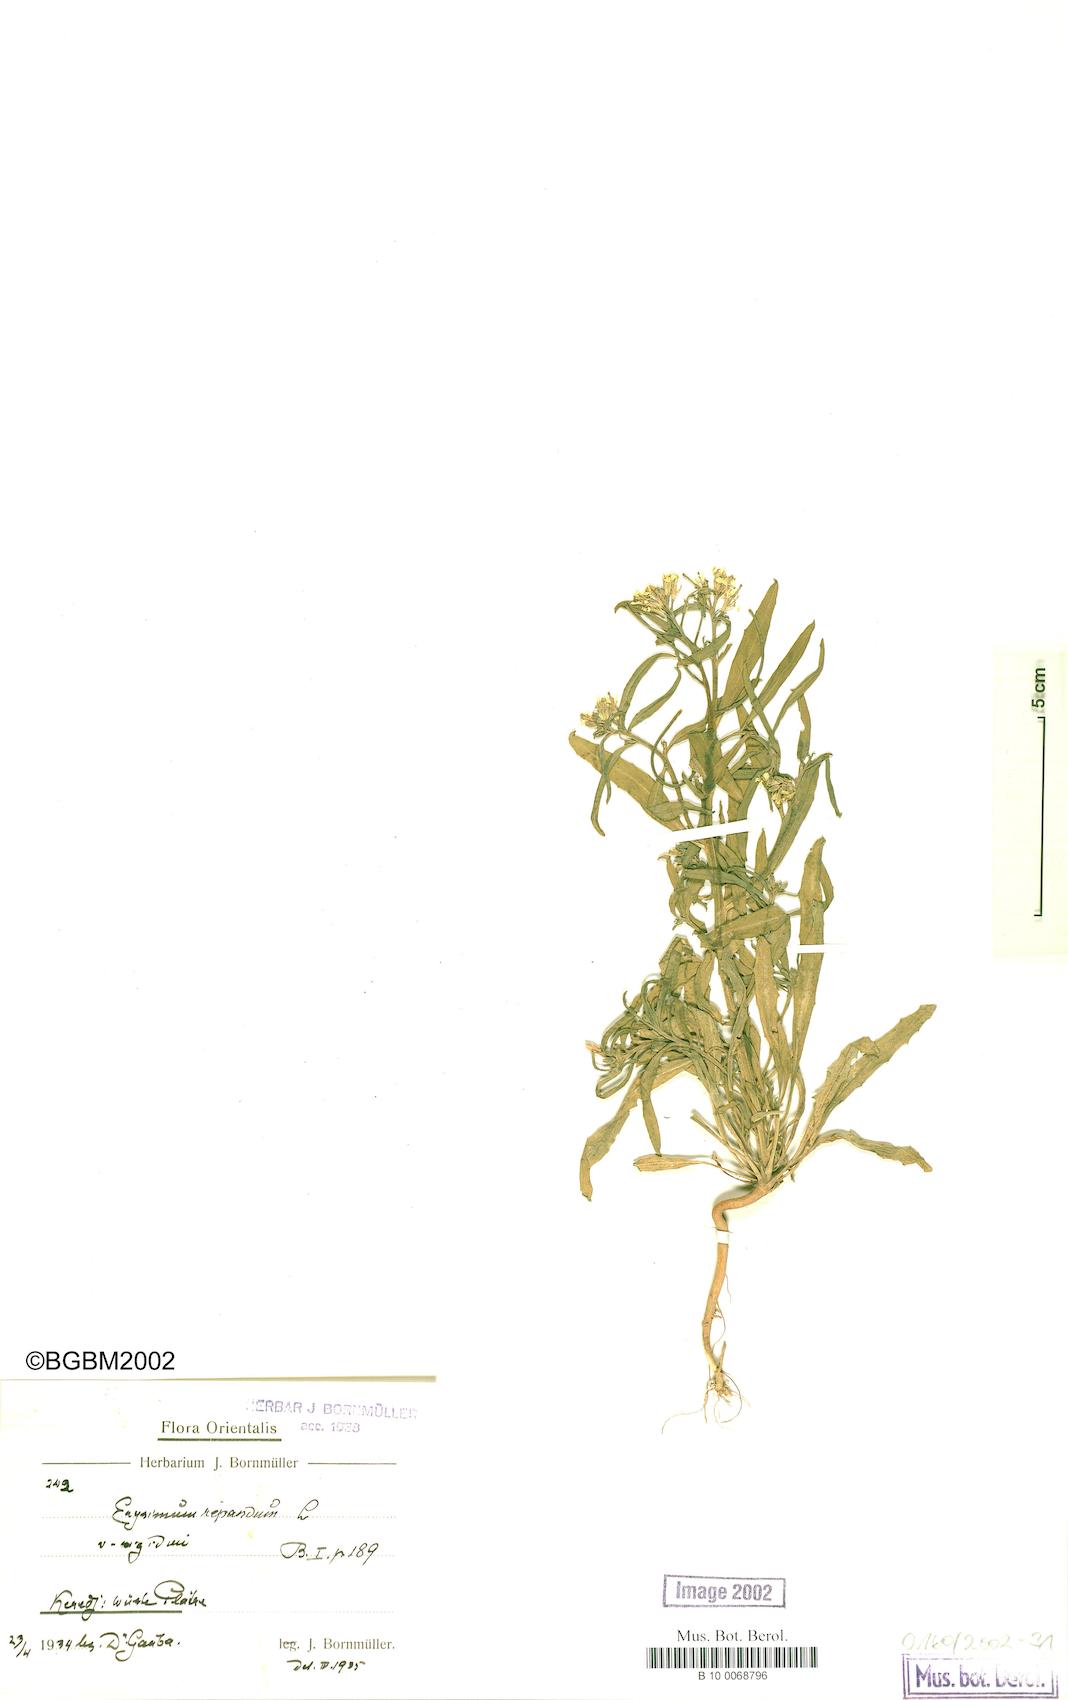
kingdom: Plantae
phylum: Tracheophyta
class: Magnoliopsida
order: Brassicales
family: Brassicaceae
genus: Erysimum
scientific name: Erysimum repandum
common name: Spreading wallflower
